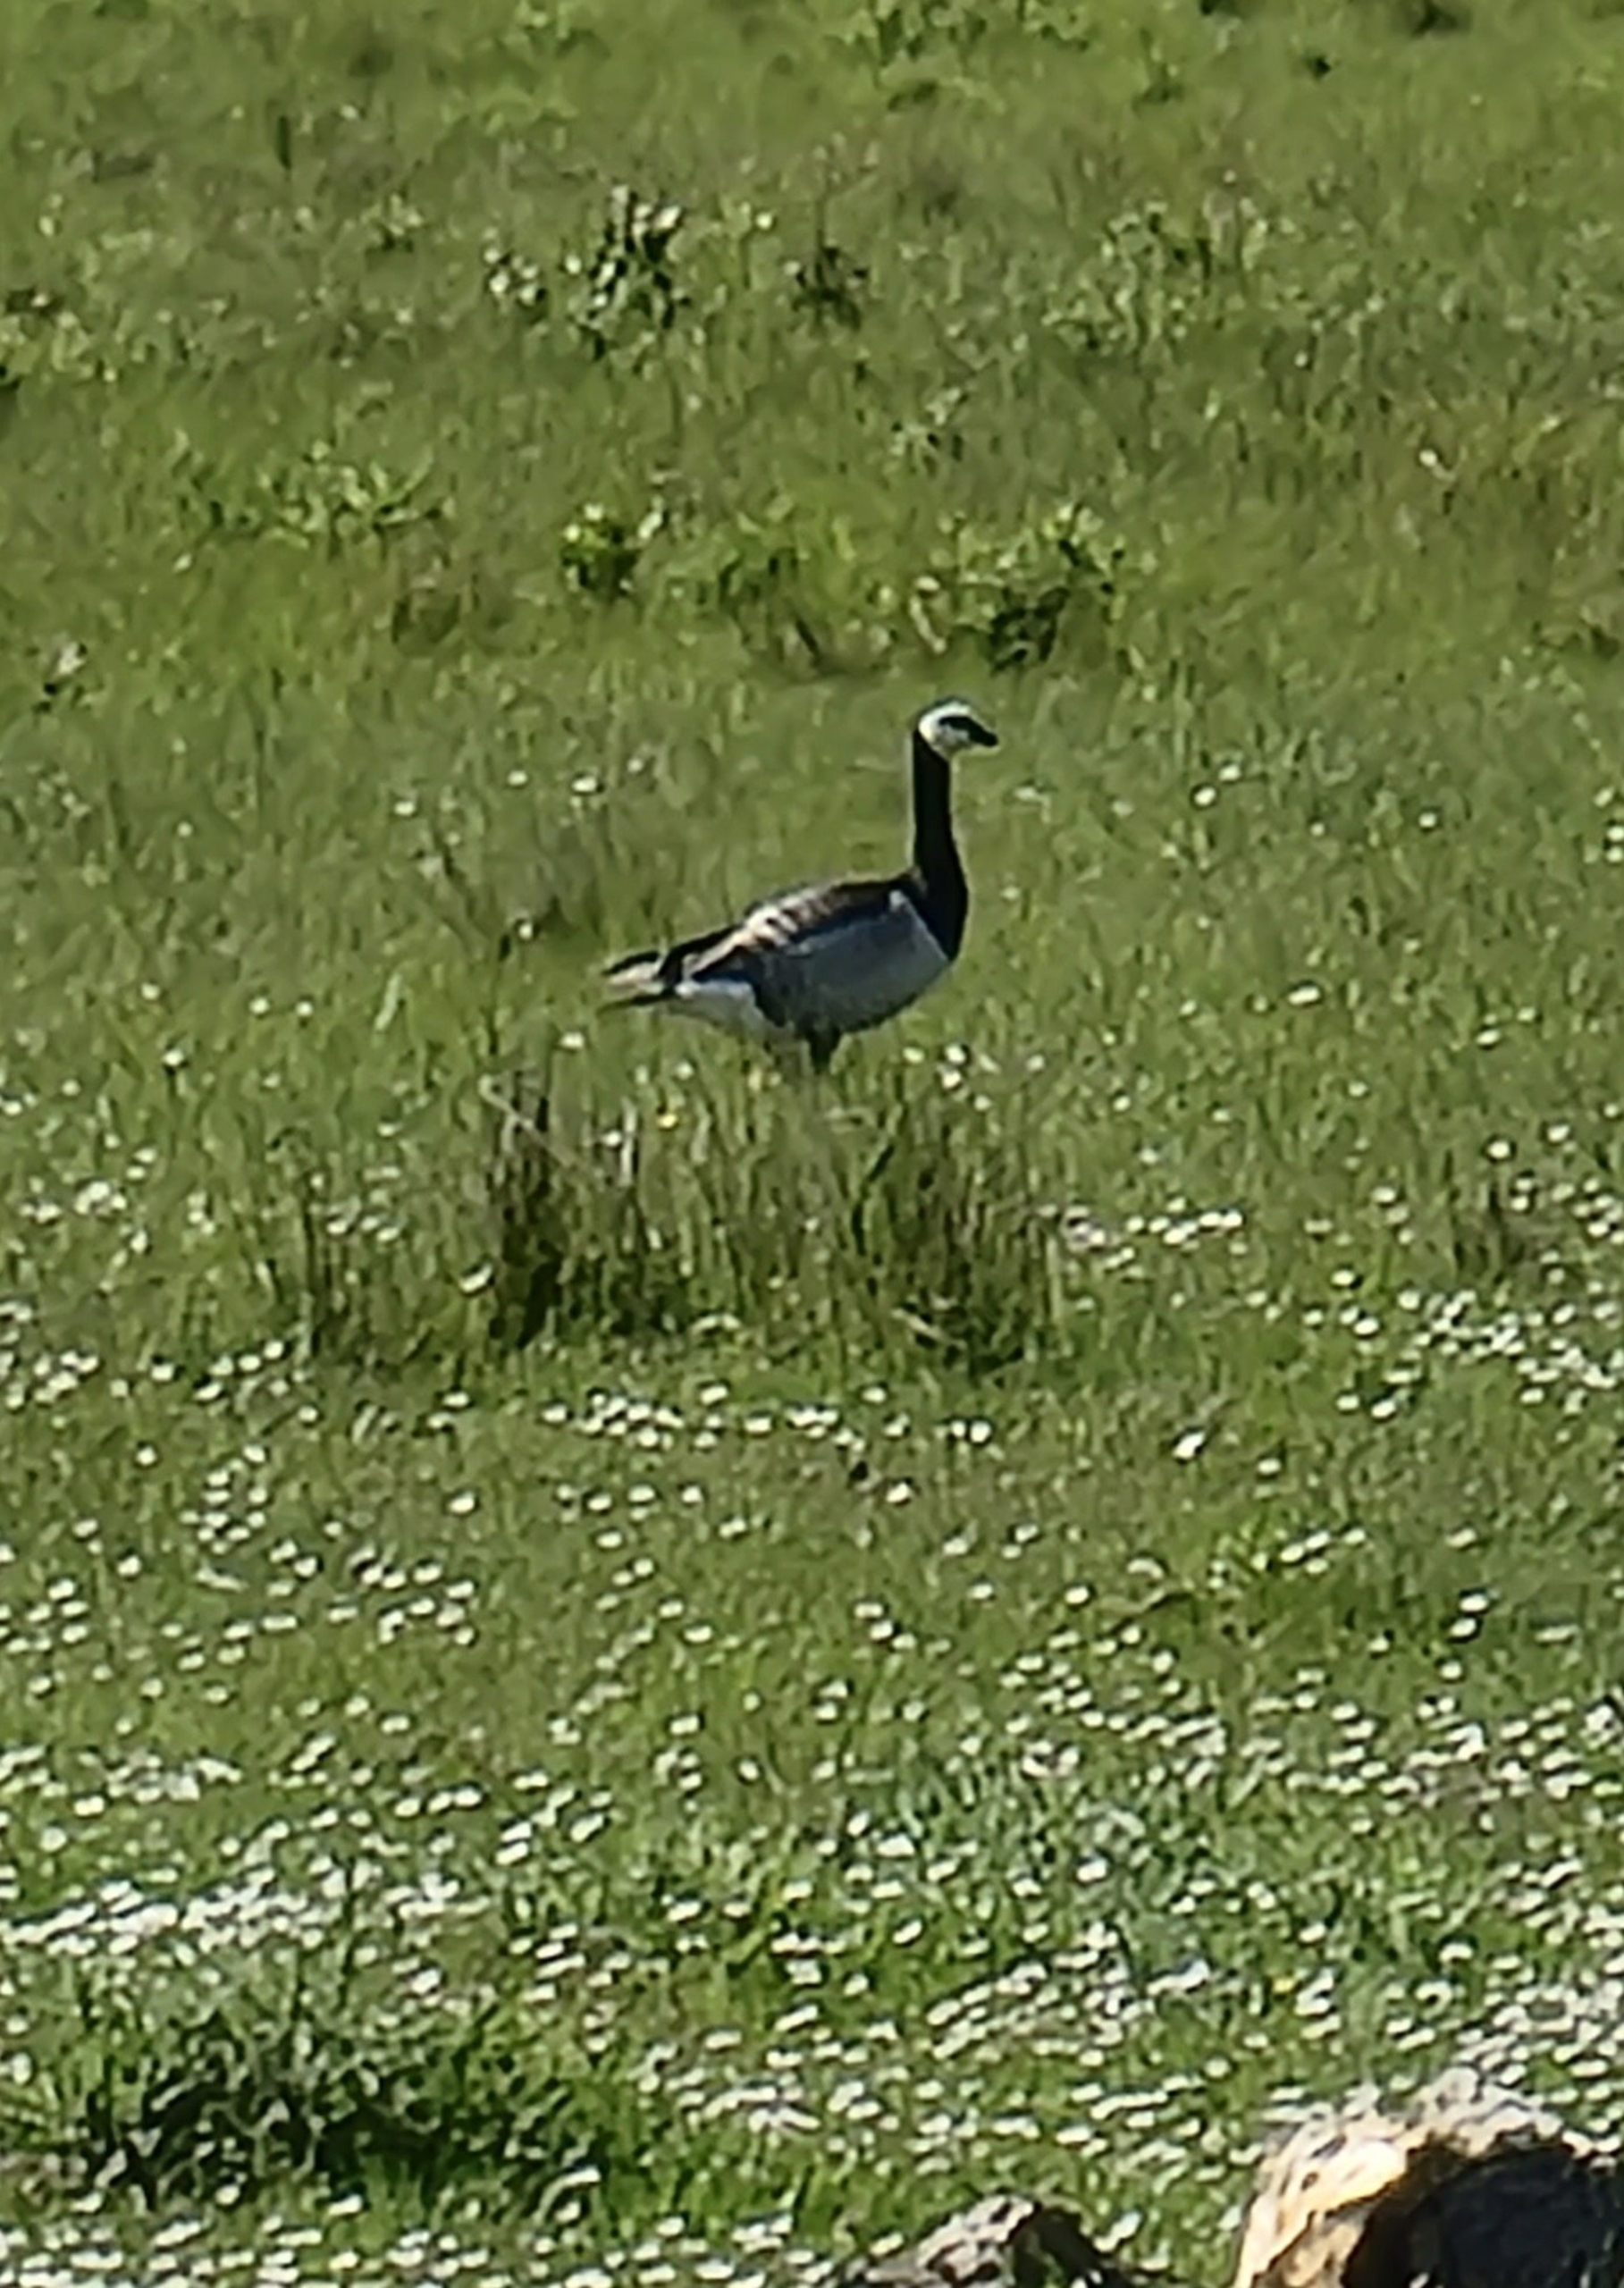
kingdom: Animalia
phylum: Chordata
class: Aves
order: Anseriformes
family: Anatidae
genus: Branta
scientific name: Branta leucopsis
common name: Bramgås
